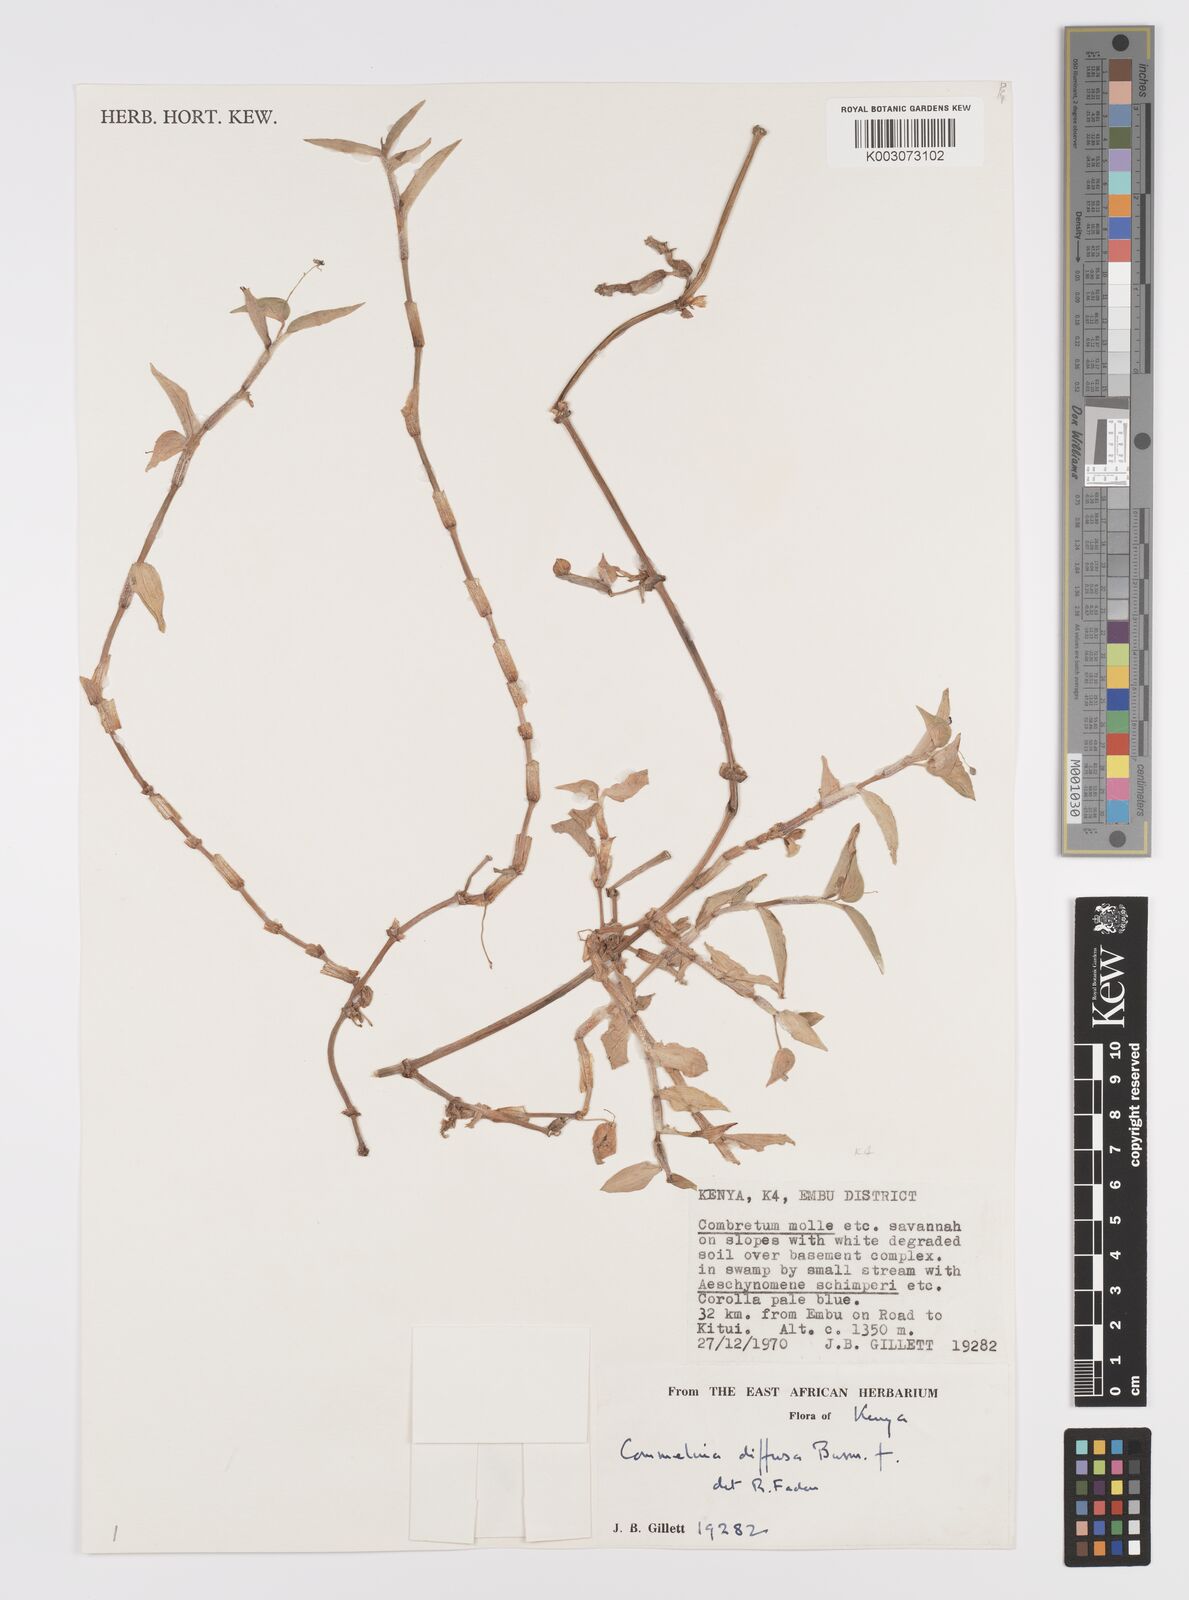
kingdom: Plantae
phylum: Tracheophyta
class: Liliopsida
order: Commelinales
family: Commelinaceae
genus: Commelina
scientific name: Commelina diffusa
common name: Climbing dayflower
